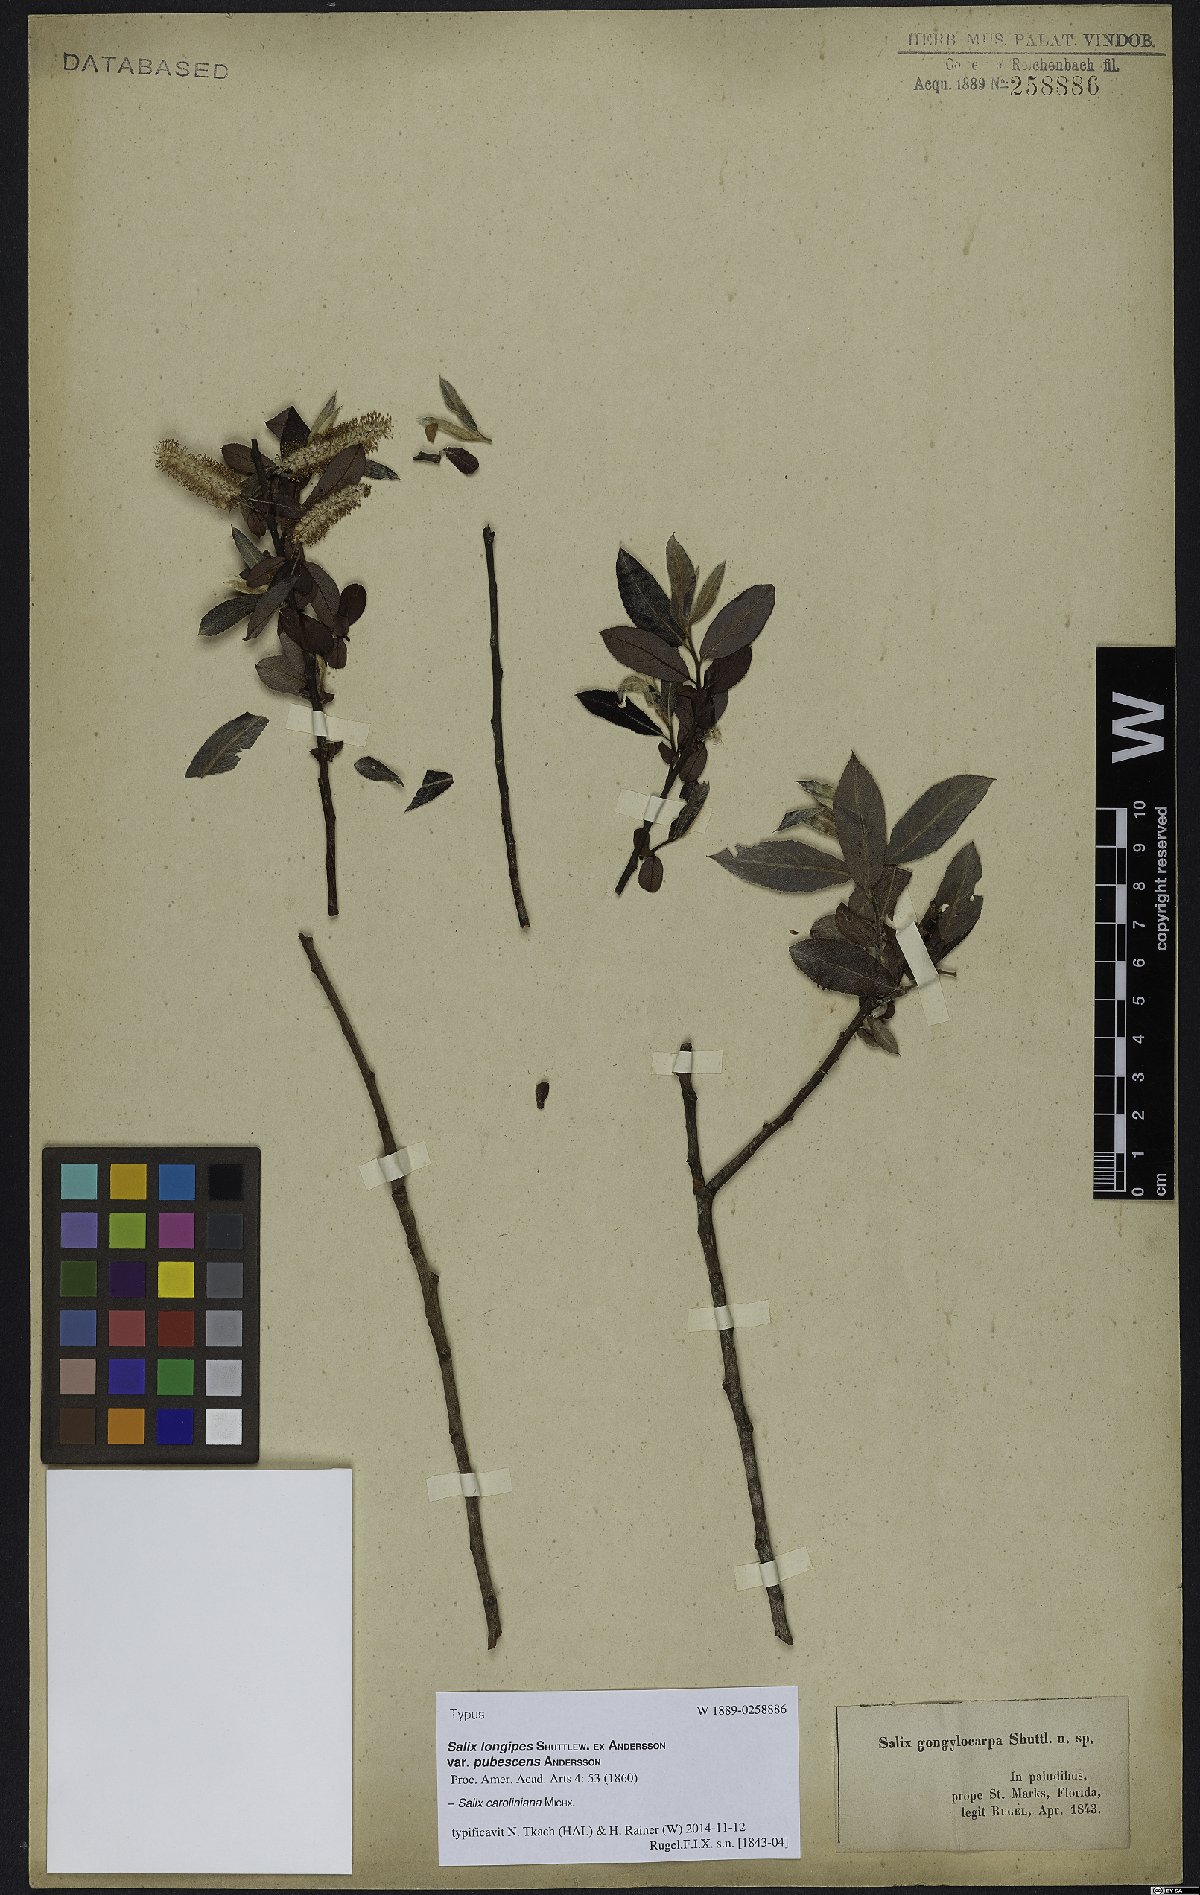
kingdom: Plantae
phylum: Tracheophyta
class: Magnoliopsida
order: Malpighiales
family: Salicaceae
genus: Salix
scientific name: Salix caroliniana
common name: Carolina willow
